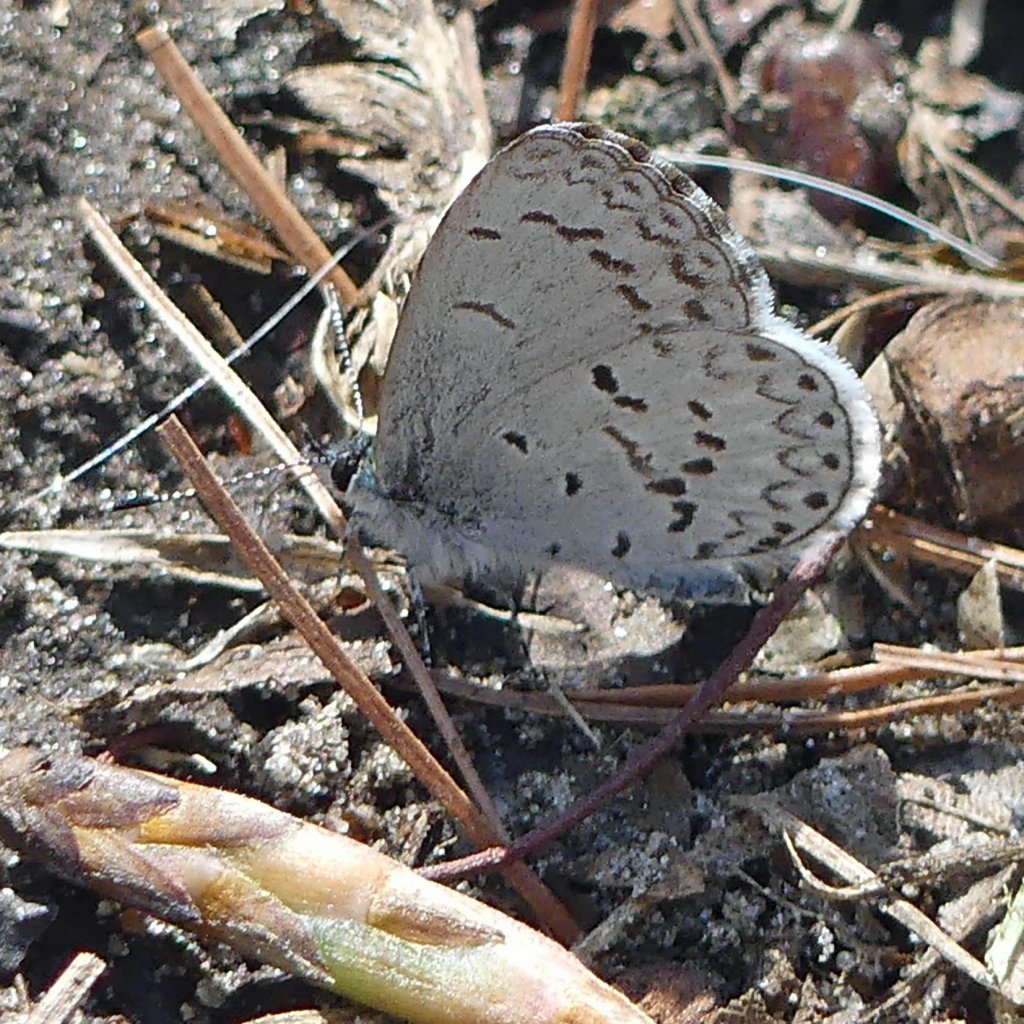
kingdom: Animalia
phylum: Arthropoda
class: Insecta
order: Lepidoptera
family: Lycaenidae
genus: Celastrina
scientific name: Celastrina lucia
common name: Northern Spring Azure
